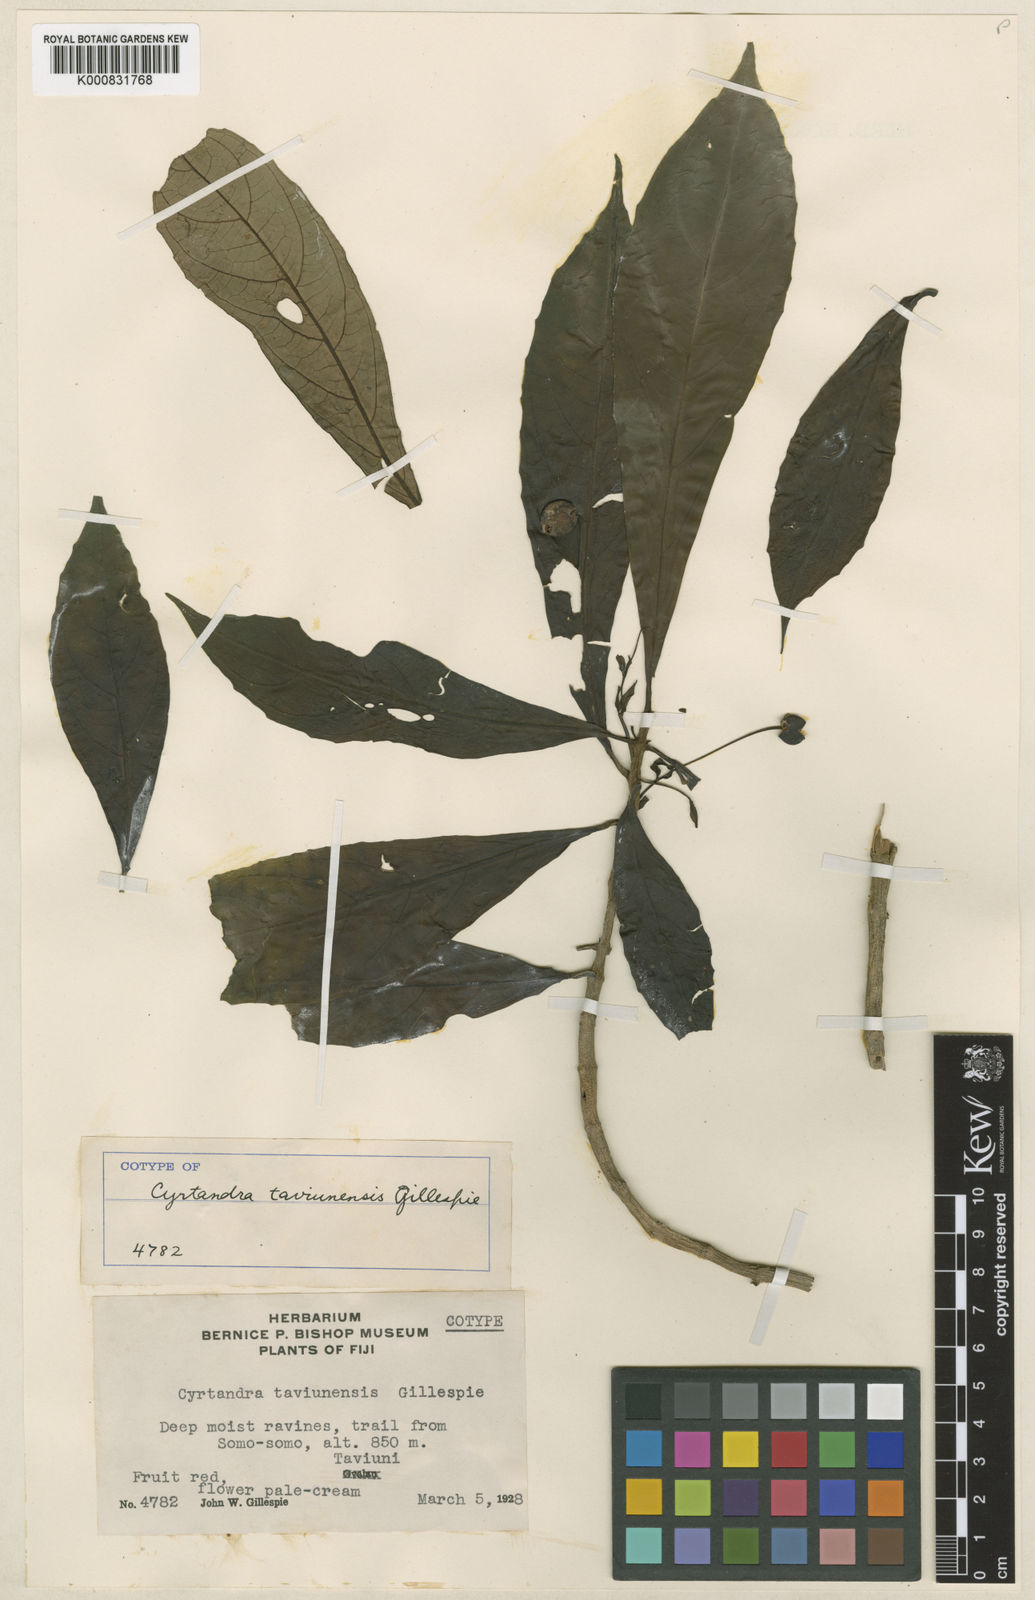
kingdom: Plantae
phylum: Tracheophyta
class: Magnoliopsida
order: Lamiales
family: Gesneriaceae
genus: Cyrtandra
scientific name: Cyrtandra taviunensis
